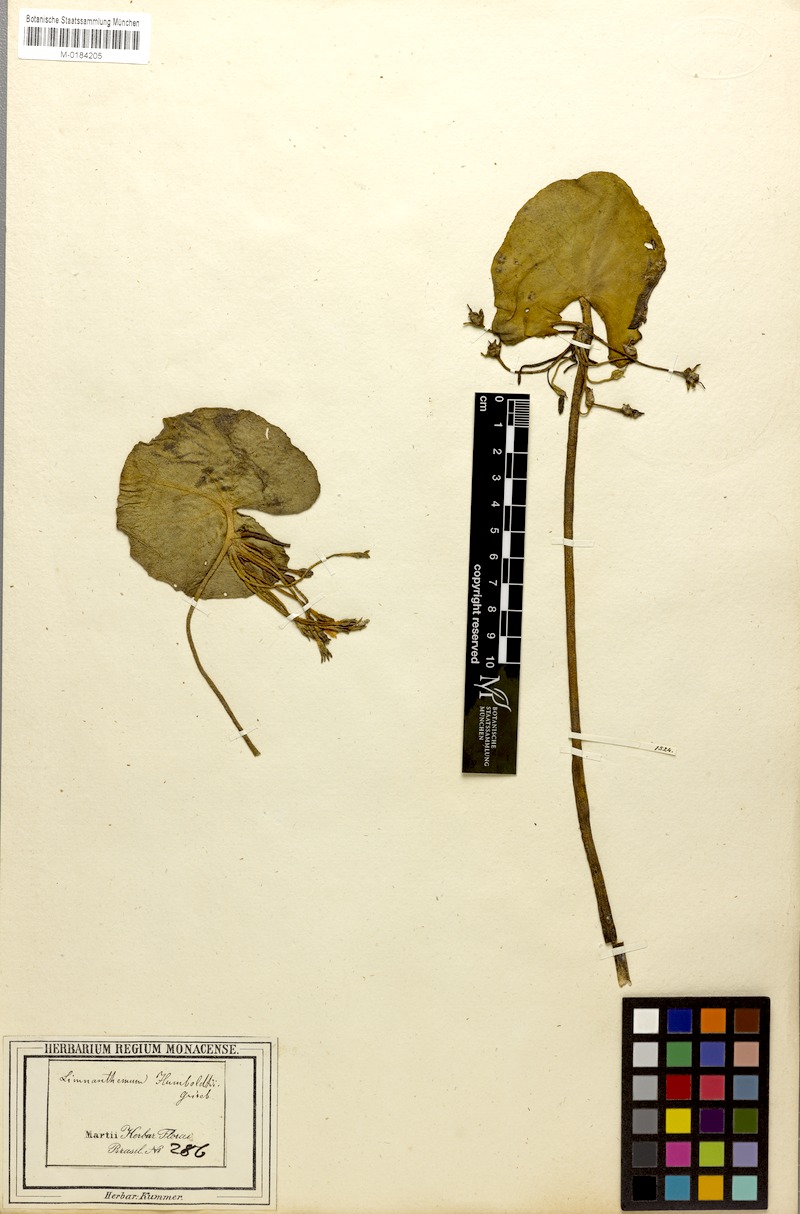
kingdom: Plantae
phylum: Tracheophyta
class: Magnoliopsida
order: Asterales
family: Menyanthaceae
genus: Nymphoides
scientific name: Nymphoides humboldtiana
